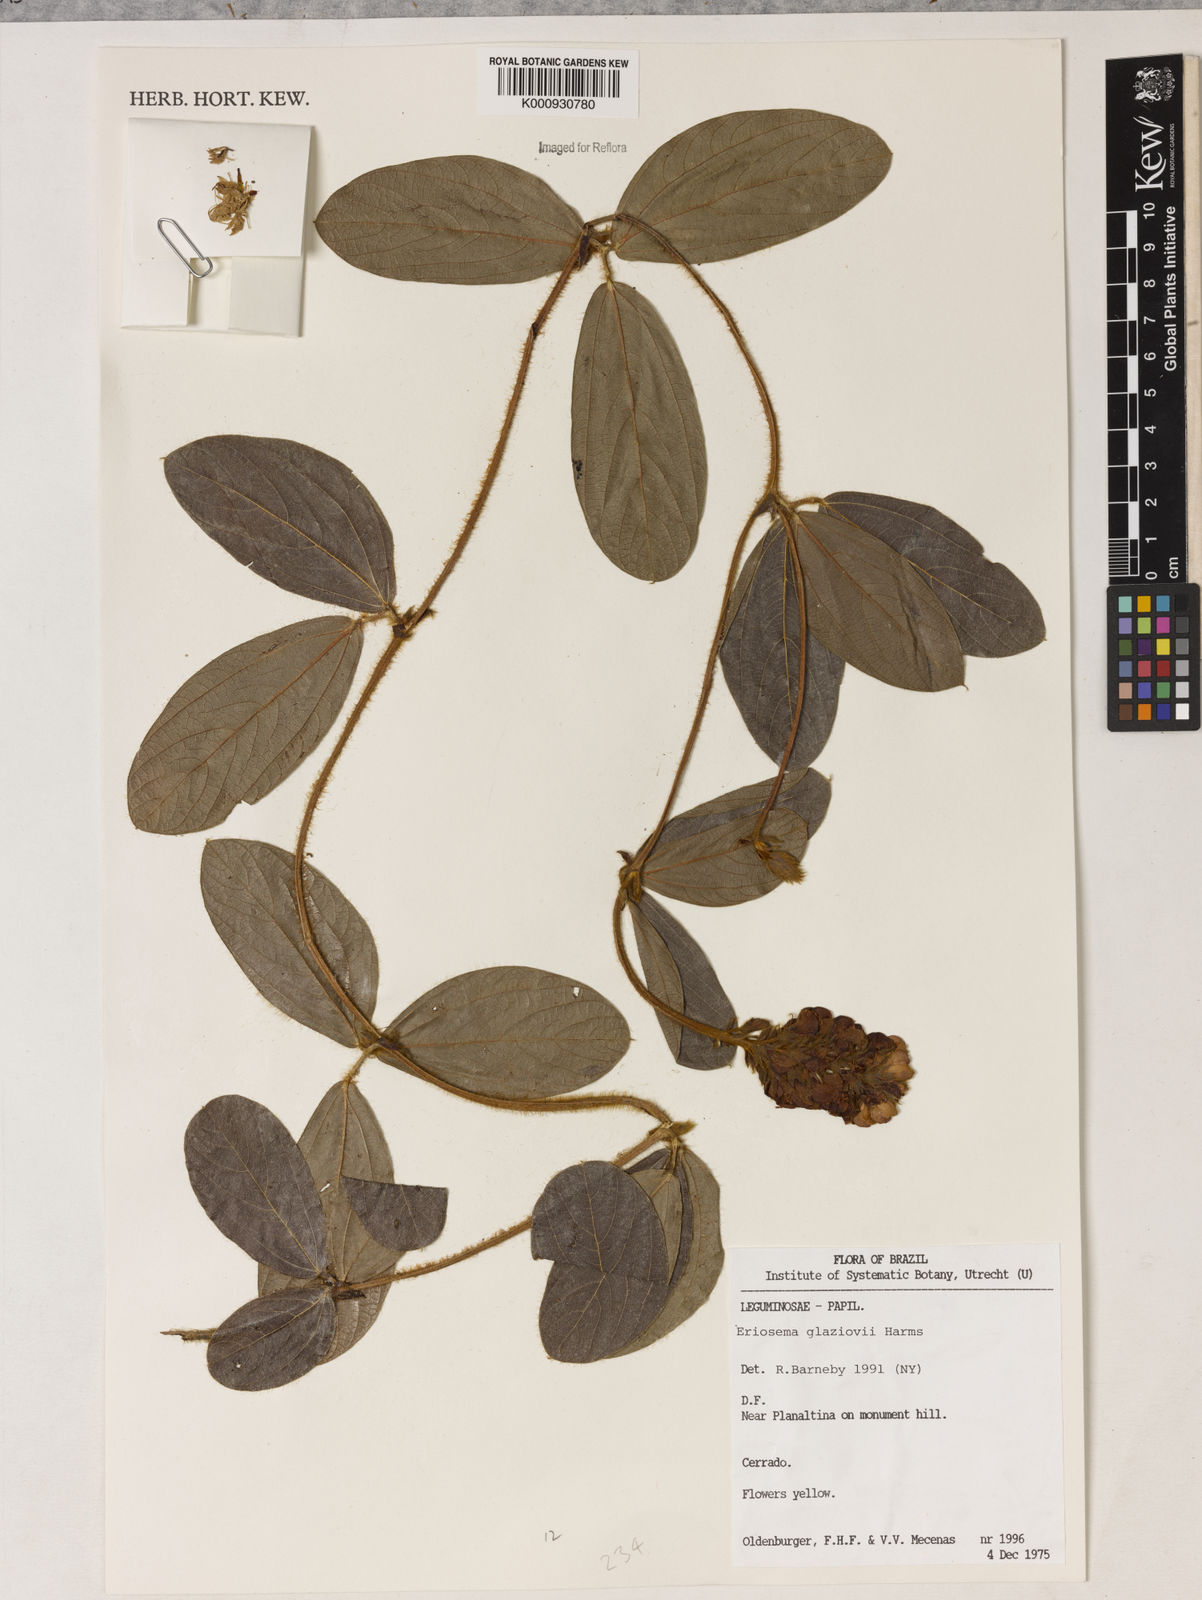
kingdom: Plantae
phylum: Tracheophyta
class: Magnoliopsida
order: Fabales
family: Fabaceae
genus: Eriosema
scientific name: Eriosema glaziovii
